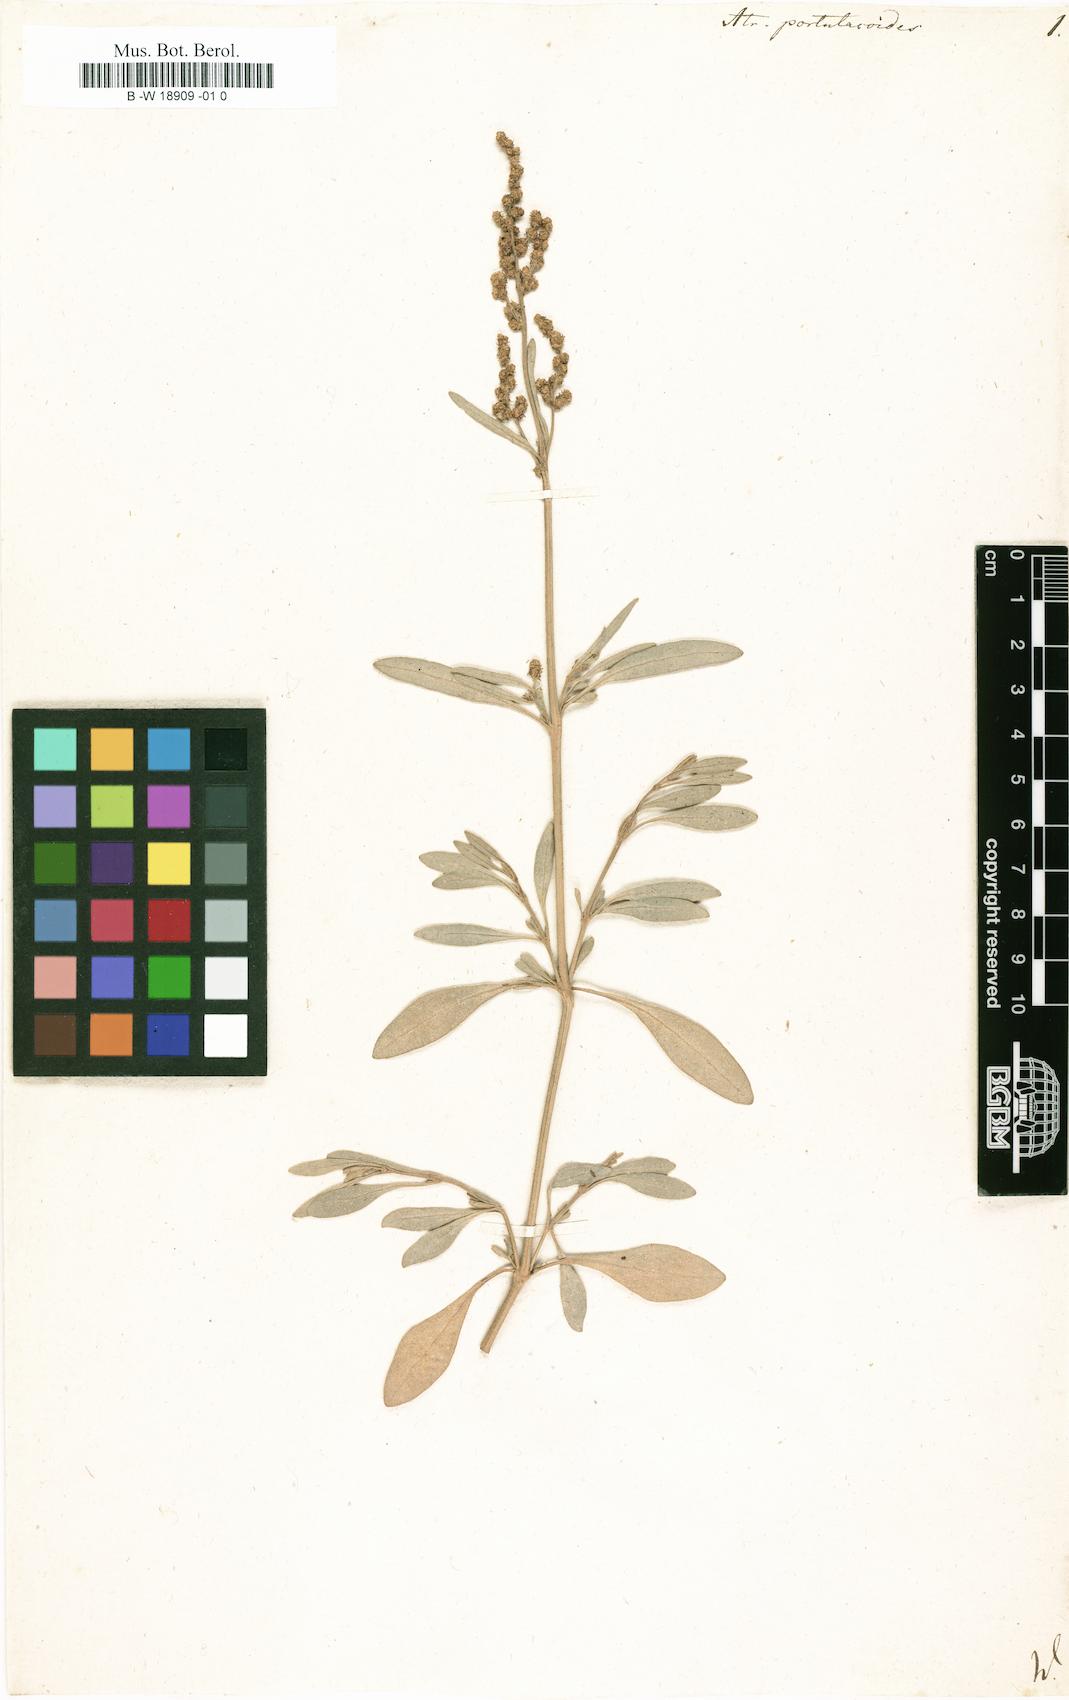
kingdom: Plantae
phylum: Tracheophyta
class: Magnoliopsida
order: Caryophyllales
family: Amaranthaceae
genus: Halimione
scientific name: Halimione portulacoides
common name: Sea-purslane
